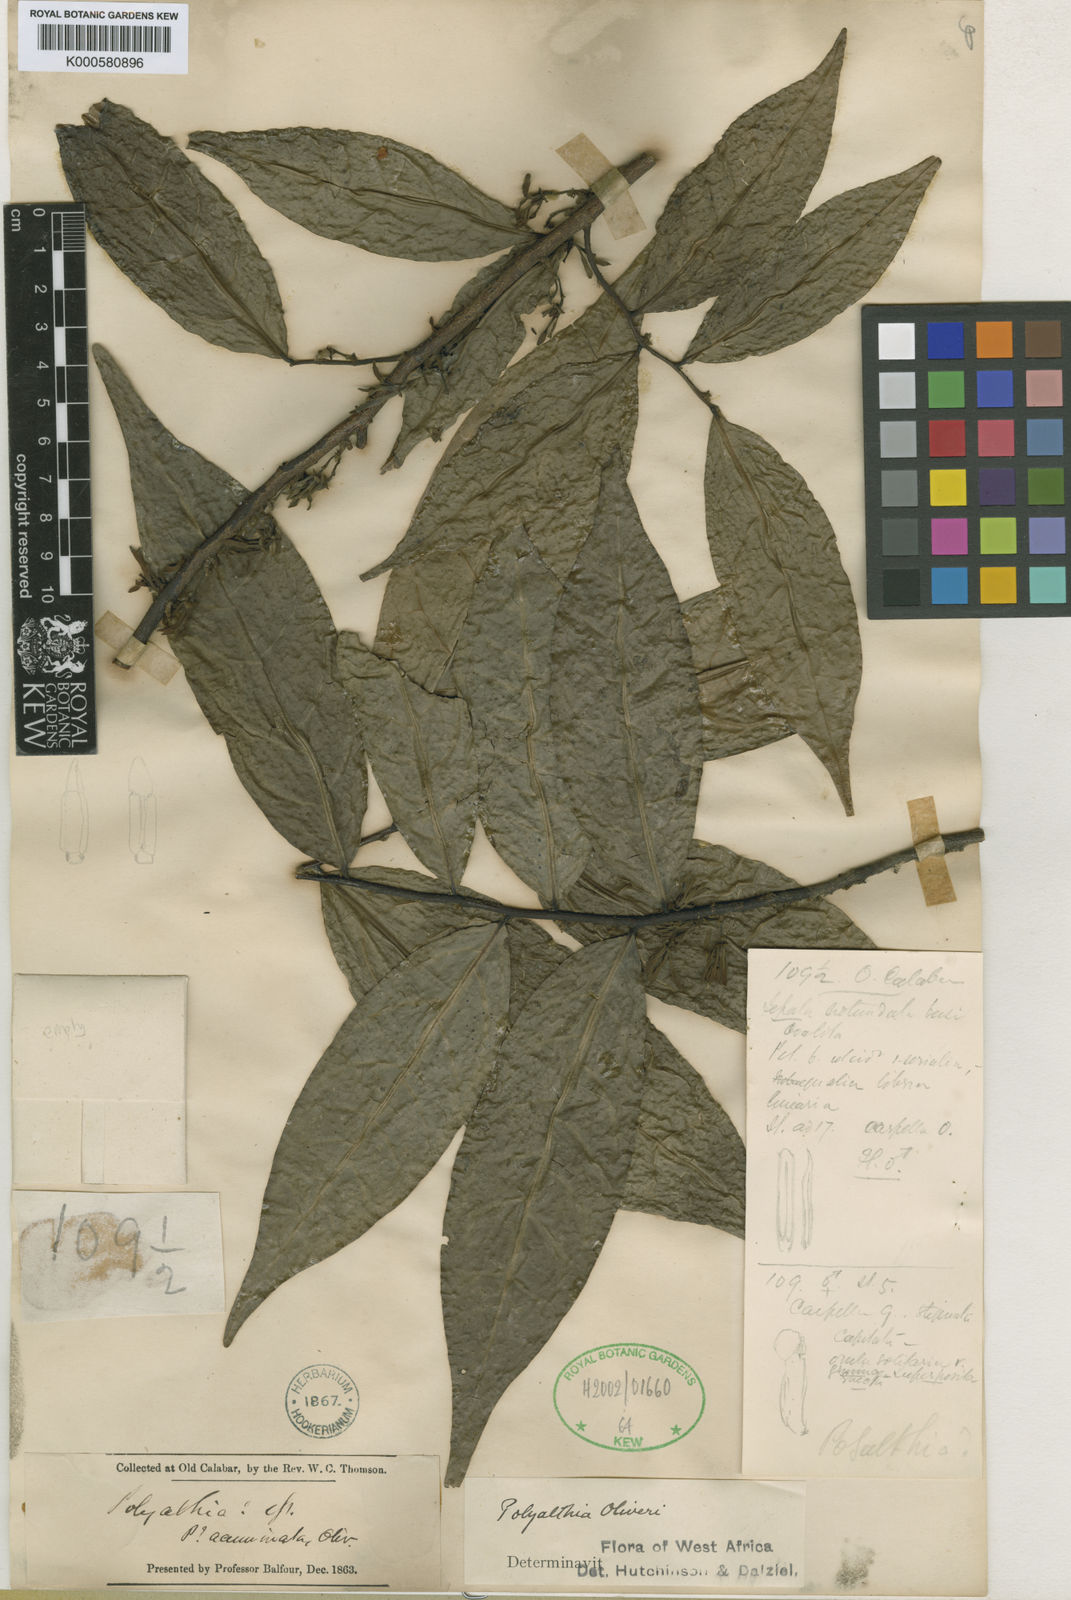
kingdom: Plantae
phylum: Tracheophyta
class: Magnoliopsida
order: Magnoliales
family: Annonaceae
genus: Greenwayodendron
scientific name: Greenwayodendron oliveri
